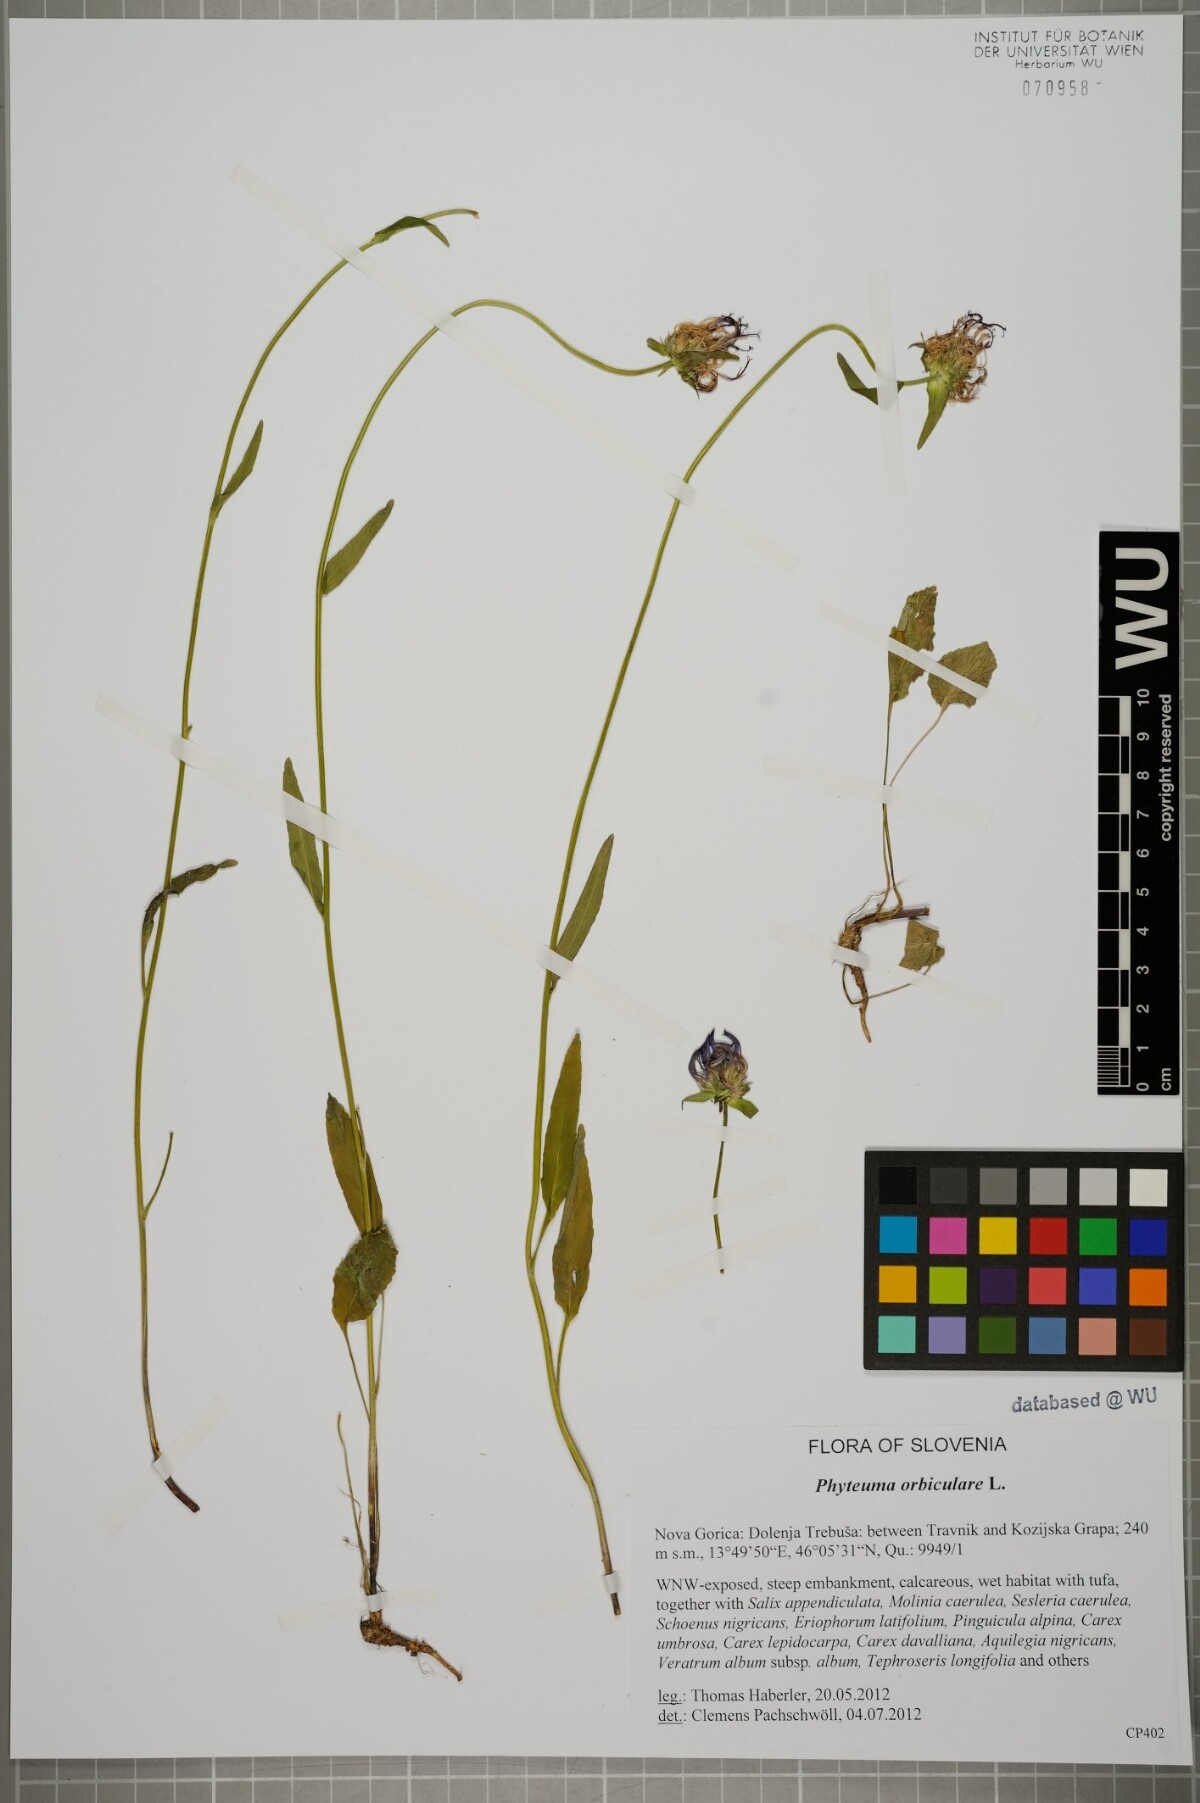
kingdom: Plantae
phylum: Tracheophyta
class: Magnoliopsida
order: Asterales
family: Campanulaceae
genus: Phyteuma
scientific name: Phyteuma orbiculare
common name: Round-headed rampion
